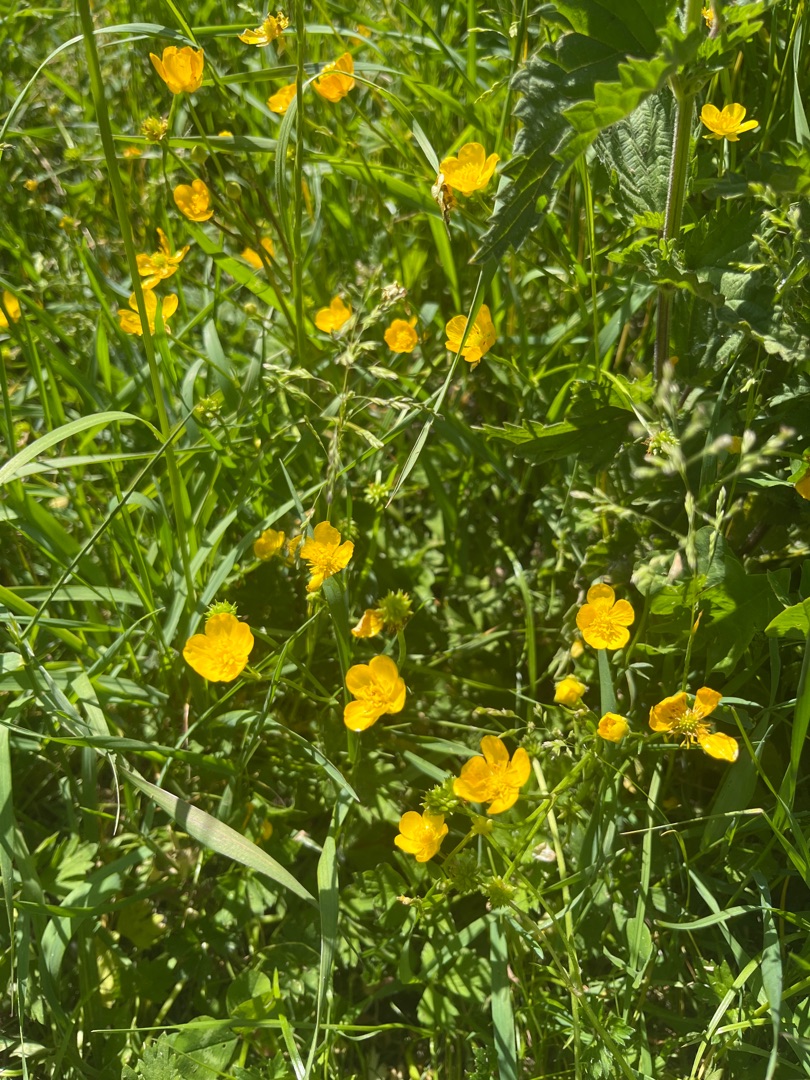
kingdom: Plantae
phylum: Tracheophyta
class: Magnoliopsida
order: Ranunculales
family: Ranunculaceae
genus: Ranunculus
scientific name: Ranunculus repens
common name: Lav ranunkel
